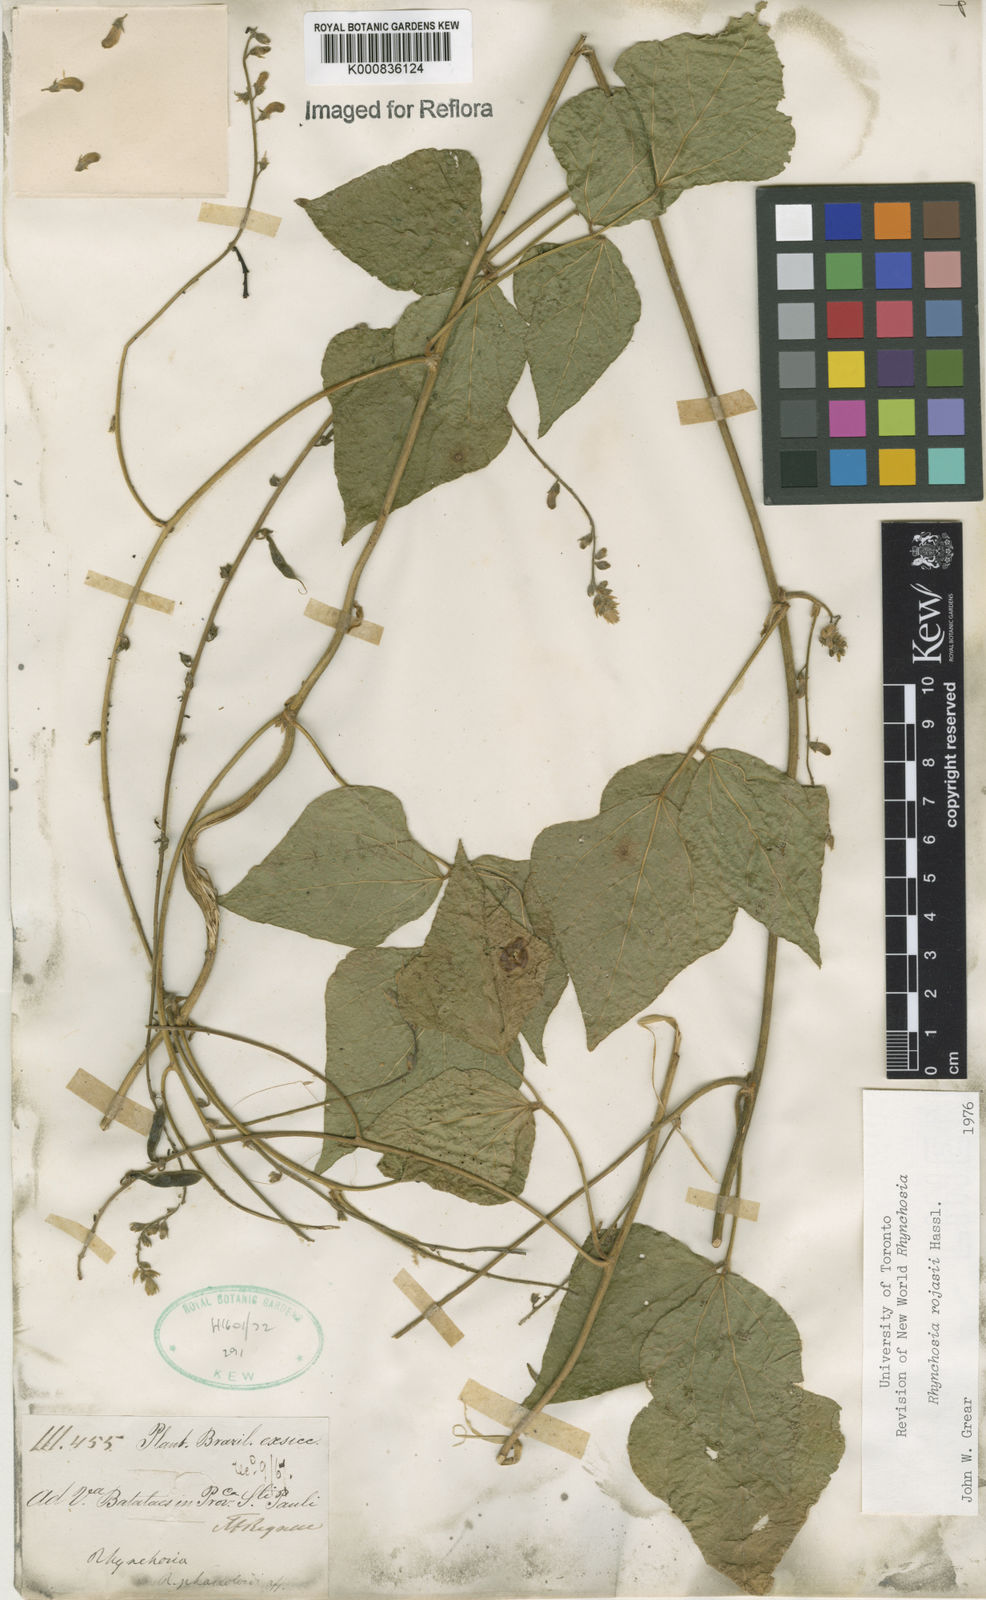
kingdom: Plantae
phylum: Tracheophyta
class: Magnoliopsida
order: Fabales
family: Fabaceae
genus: Rhynchosia
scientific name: Rhynchosia rojasii
